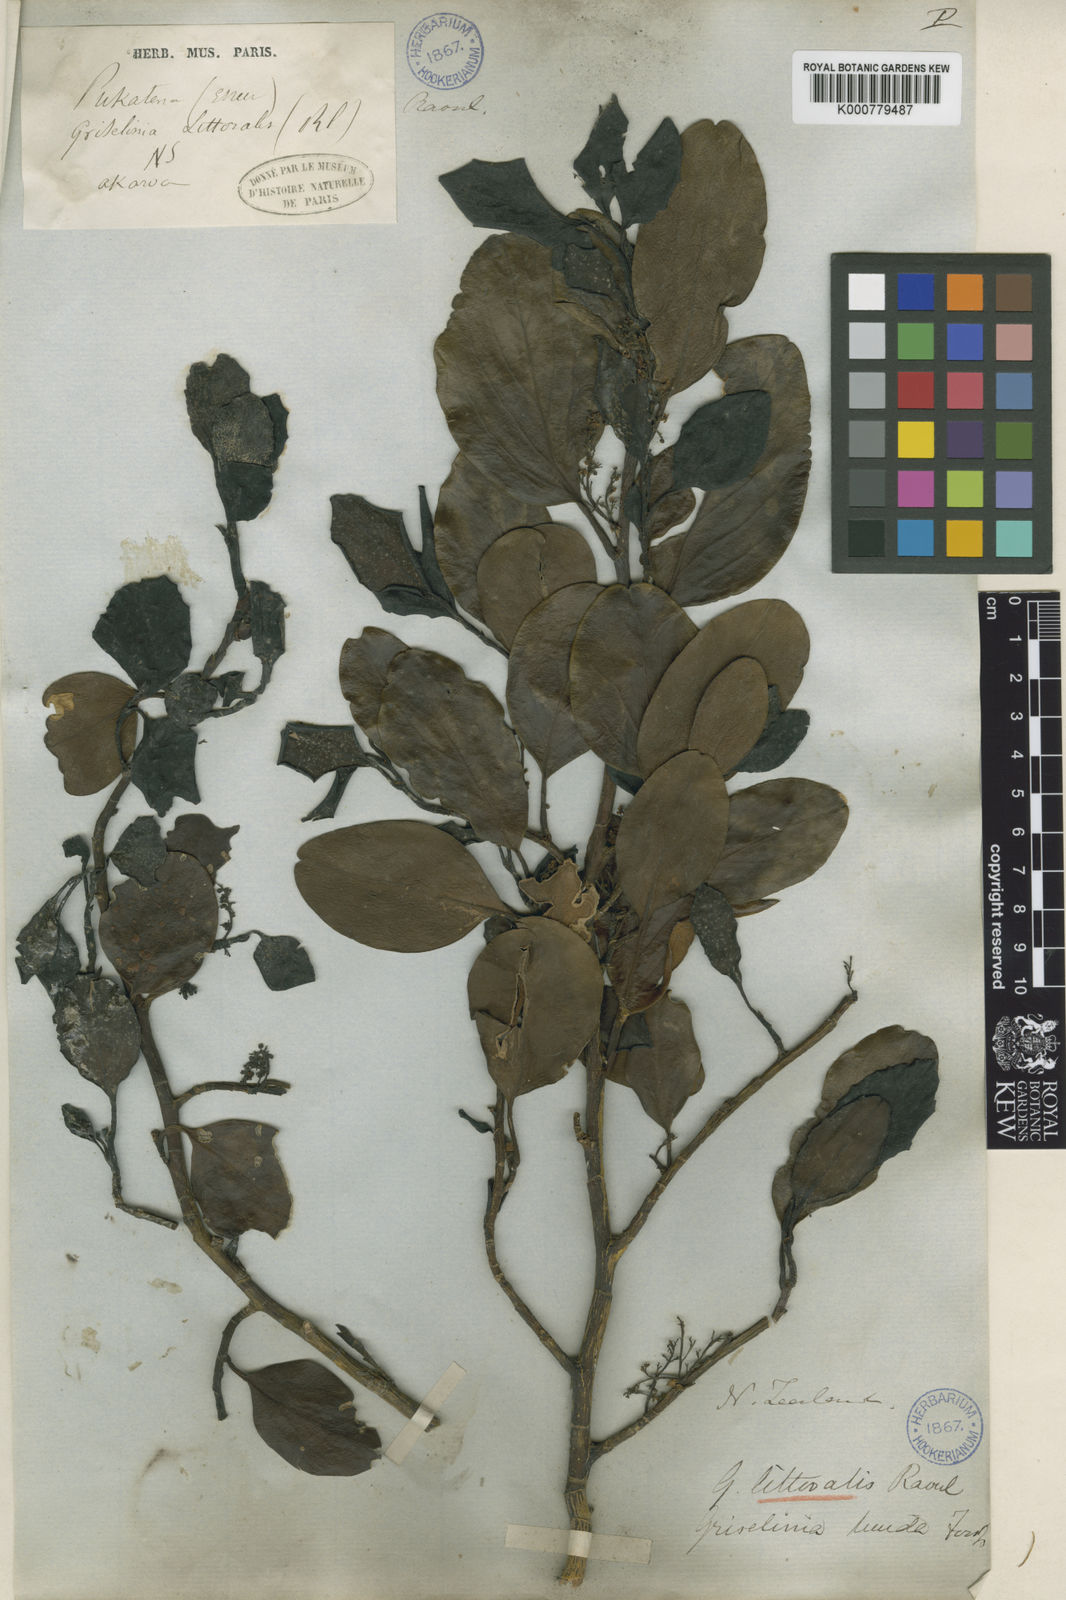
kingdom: Plantae
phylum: Tracheophyta
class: Magnoliopsida
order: Apiales
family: Griseliniaceae
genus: Griselinia
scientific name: Griselinia littoralis
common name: New zealand broadleaf
